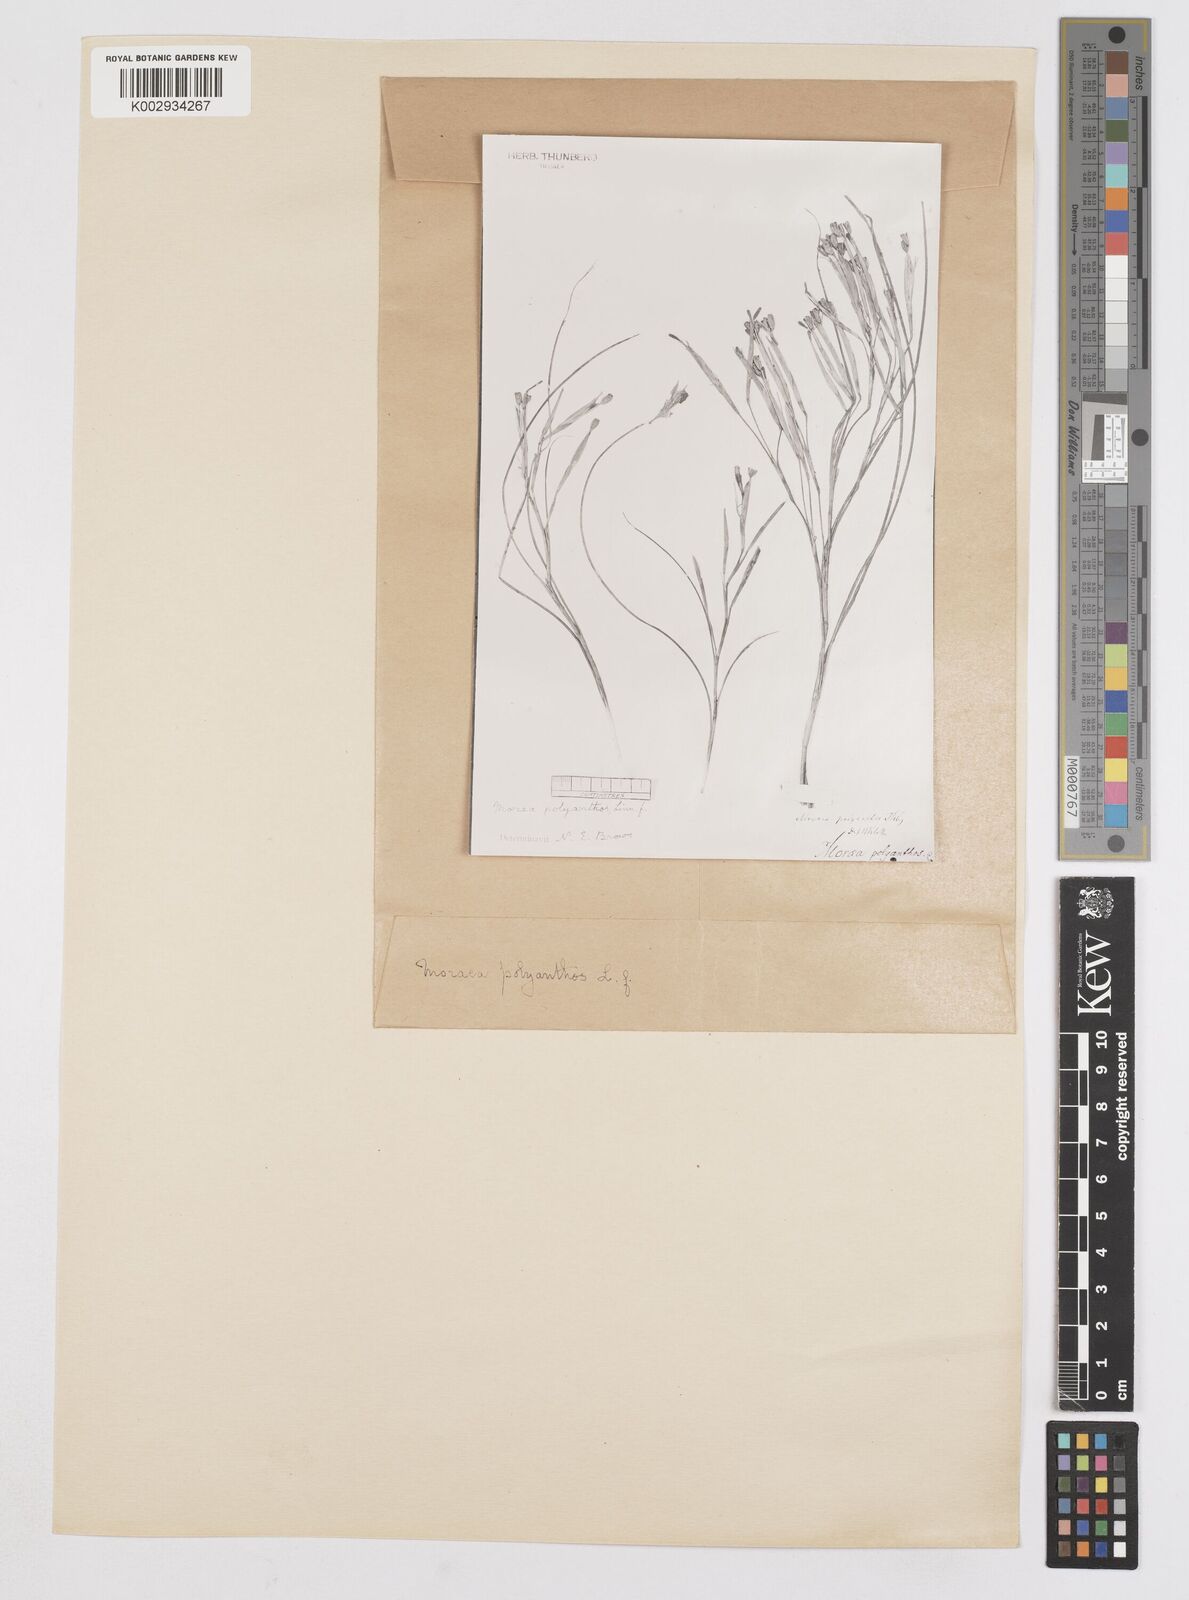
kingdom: Plantae
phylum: Tracheophyta
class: Liliopsida
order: Asparagales
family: Iridaceae
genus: Moraea
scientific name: Moraea bipartita
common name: Blue tulp
